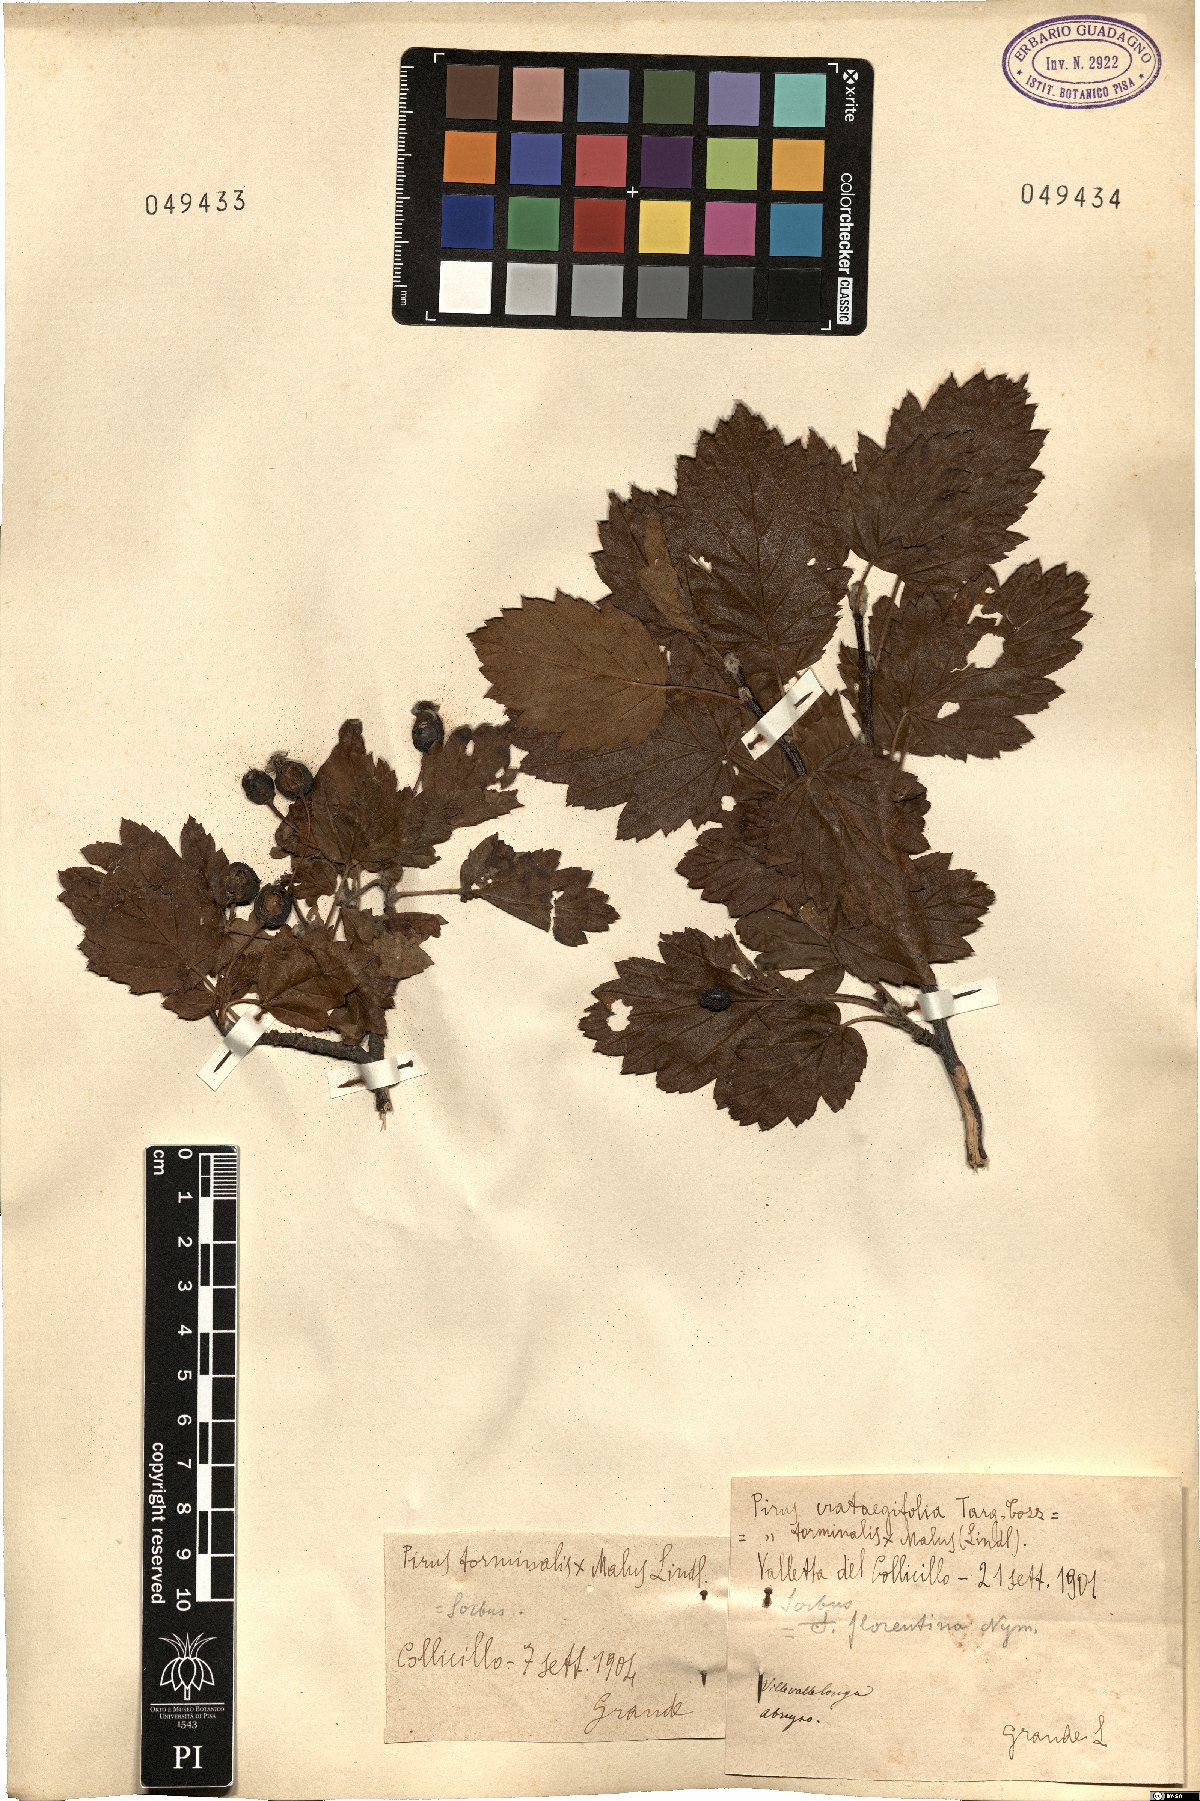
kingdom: Plantae
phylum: Tracheophyta
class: Magnoliopsida
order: Rosales
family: Rosaceae
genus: Tormimalus
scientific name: Tormimalus florentina
